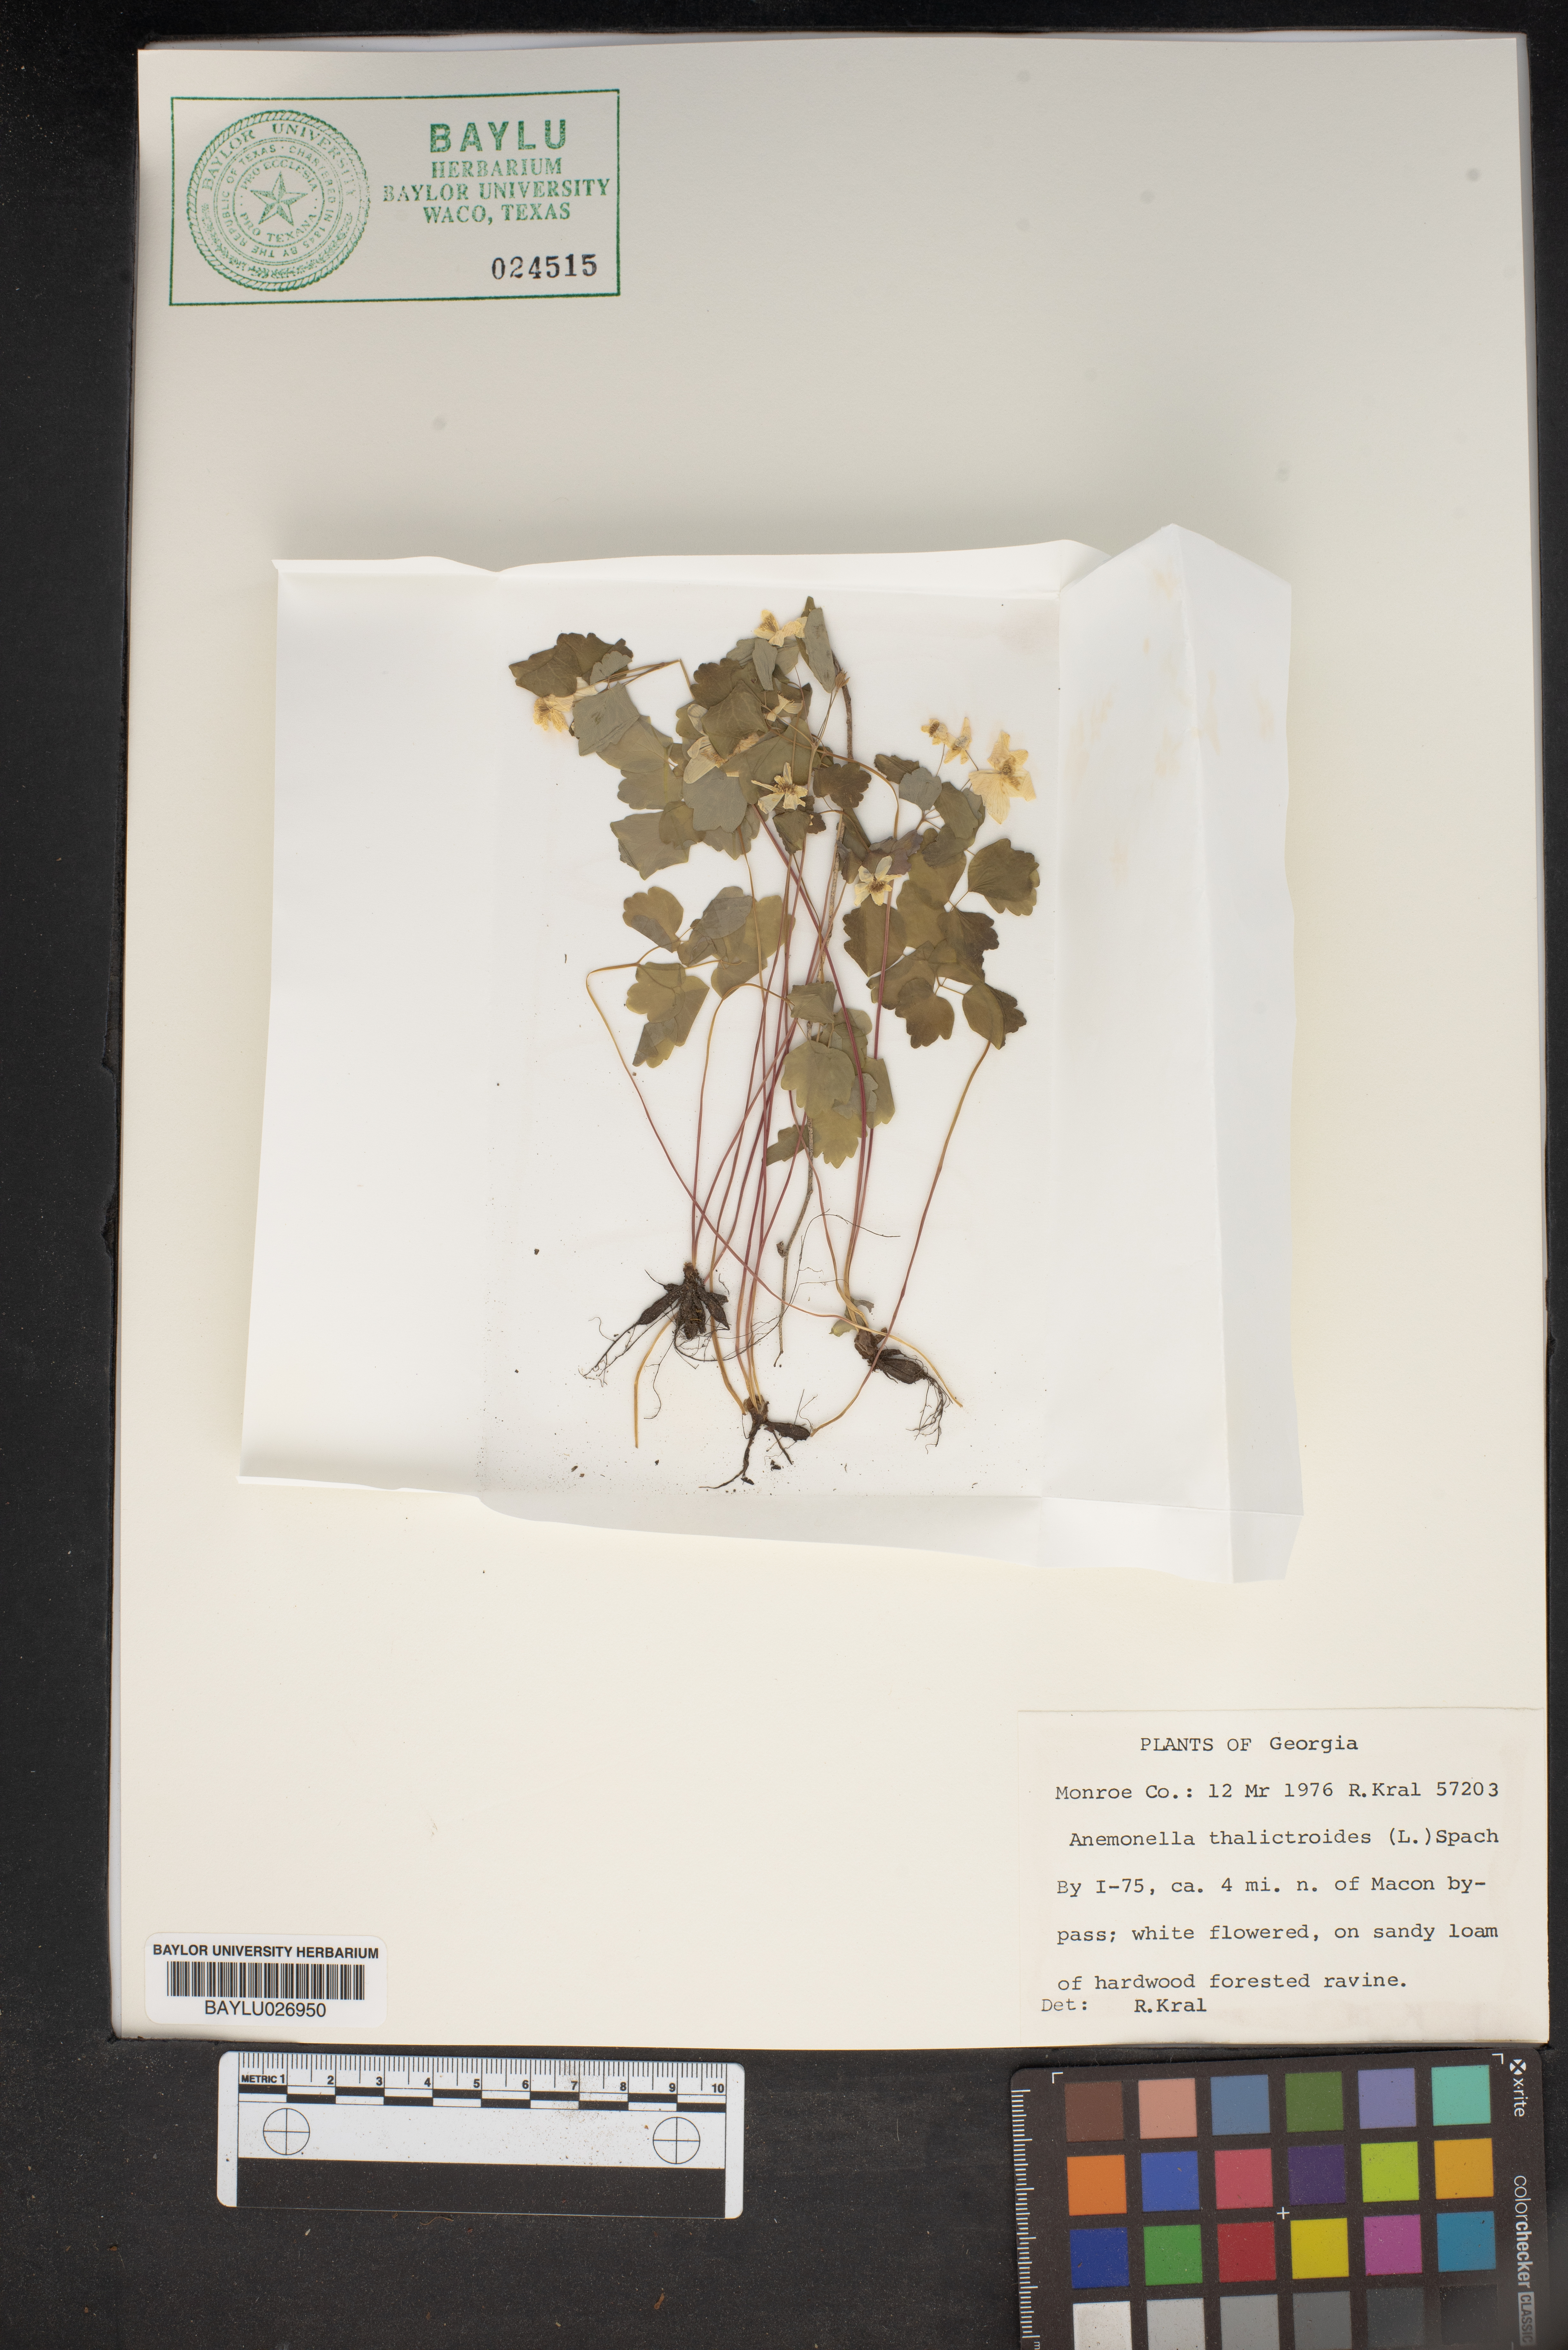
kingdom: Plantae
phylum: Tracheophyta
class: Magnoliopsida
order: Ranunculales
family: Ranunculaceae
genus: Thalictrum
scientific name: Thalictrum thalictroides
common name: Rue-anemone
